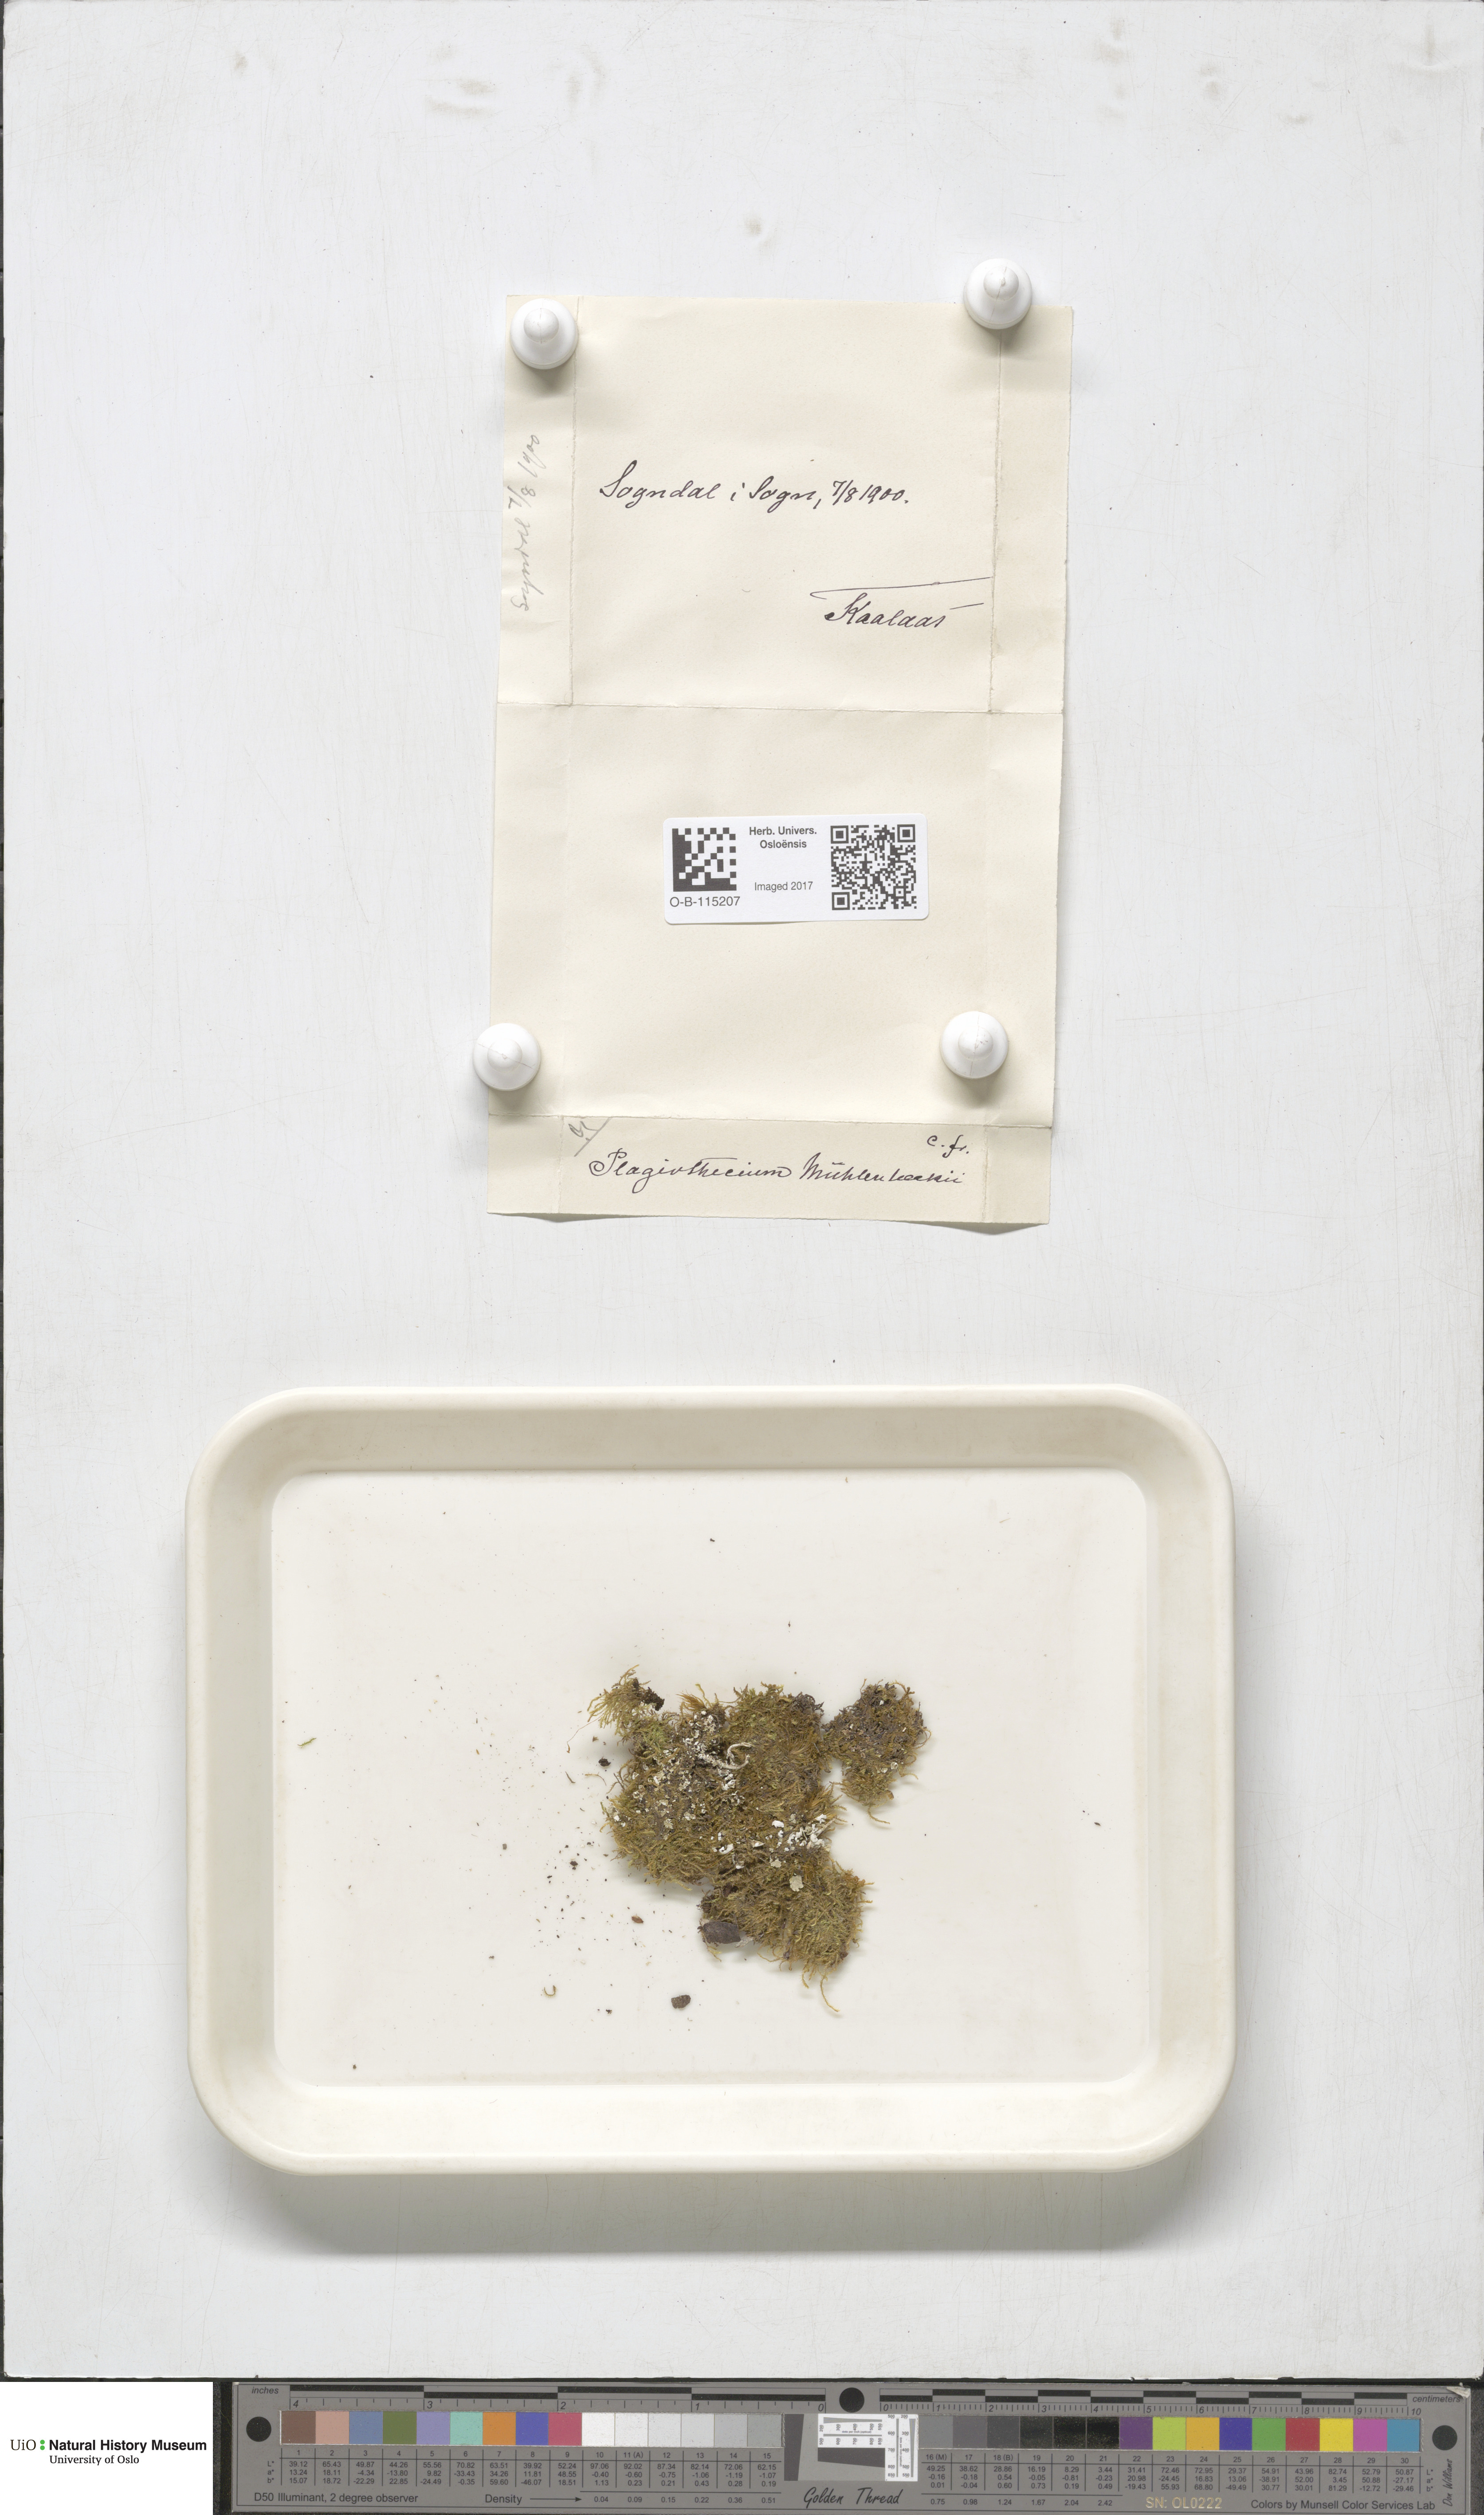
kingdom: Plantae
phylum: Bryophyta
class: Bryopsida
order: Hypnales
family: Plagiotheciaceae
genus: Herzogiella
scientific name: Herzogiella striatella
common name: Muhlenbeck's feather-moss
